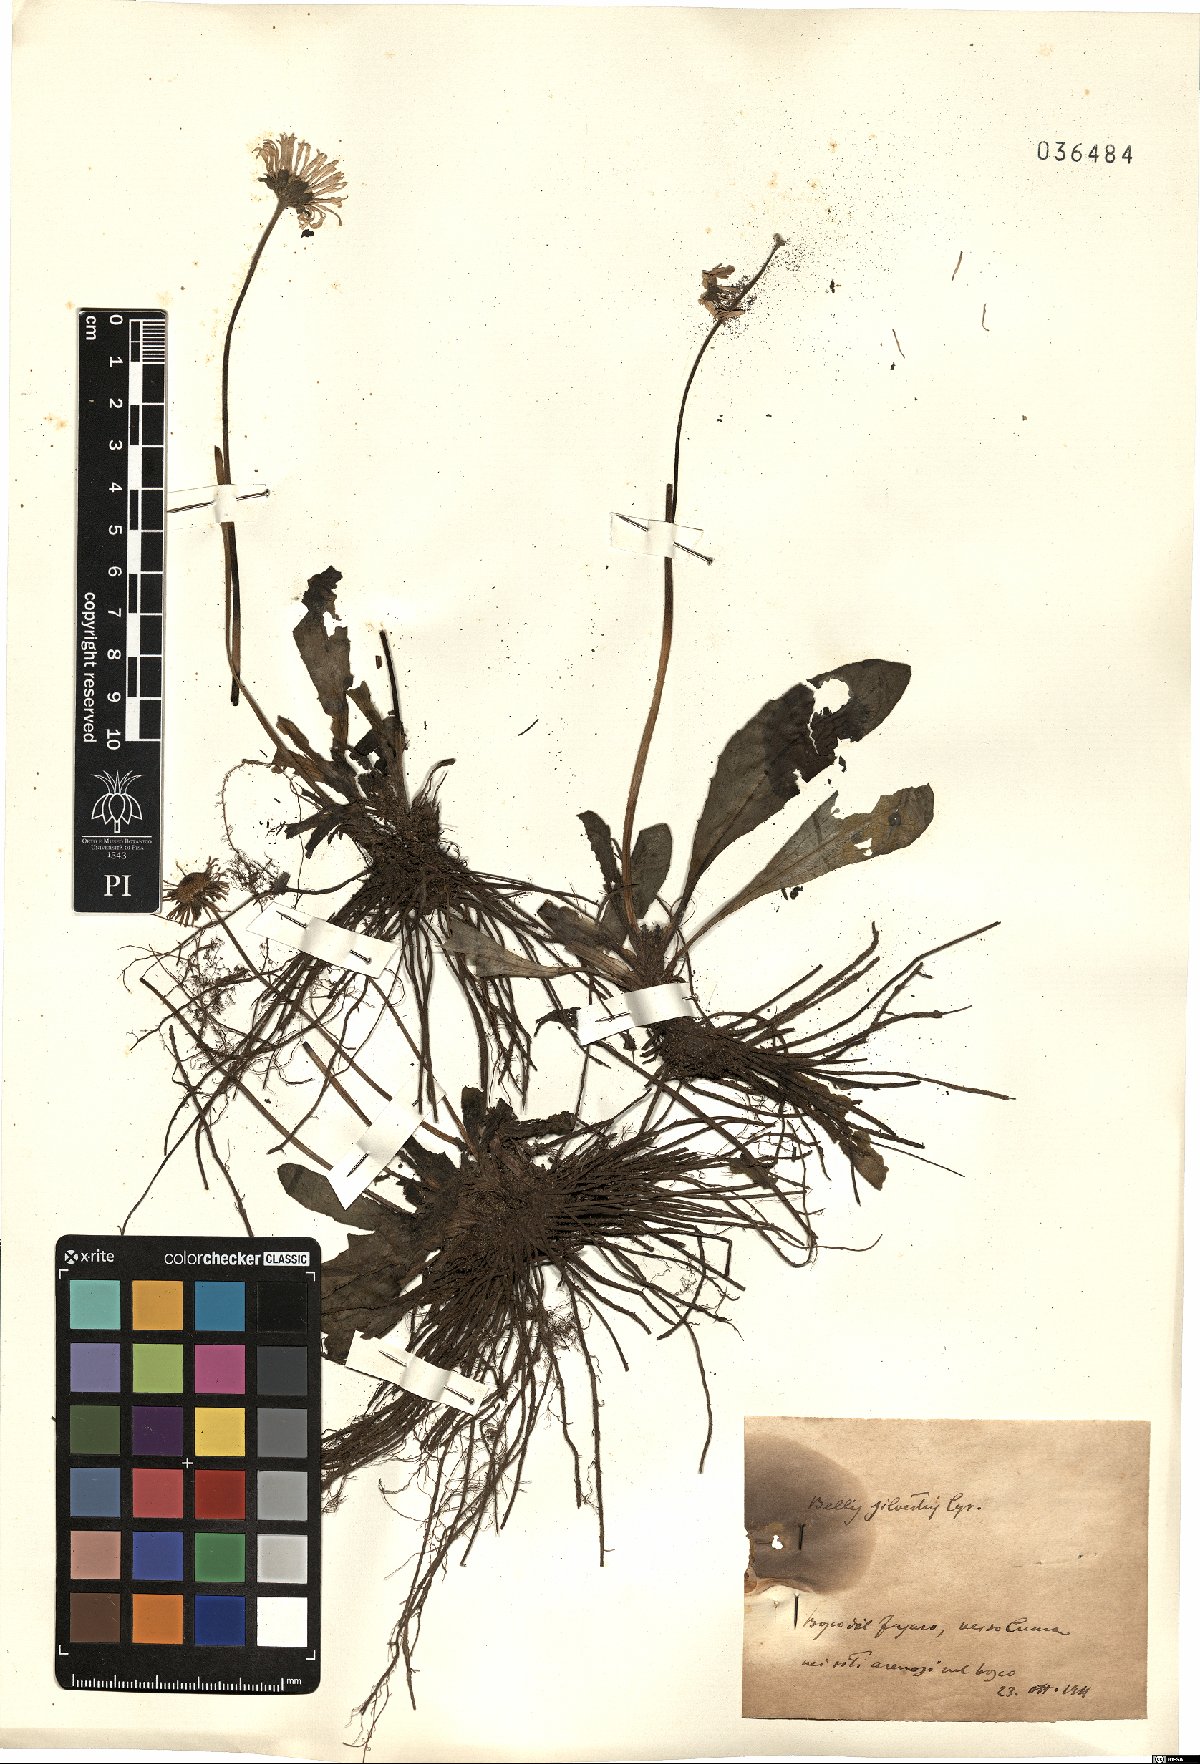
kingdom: Plantae
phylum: Tracheophyta
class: Magnoliopsida
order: Asterales
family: Asteraceae
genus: Bellis
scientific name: Bellis sylvestris
